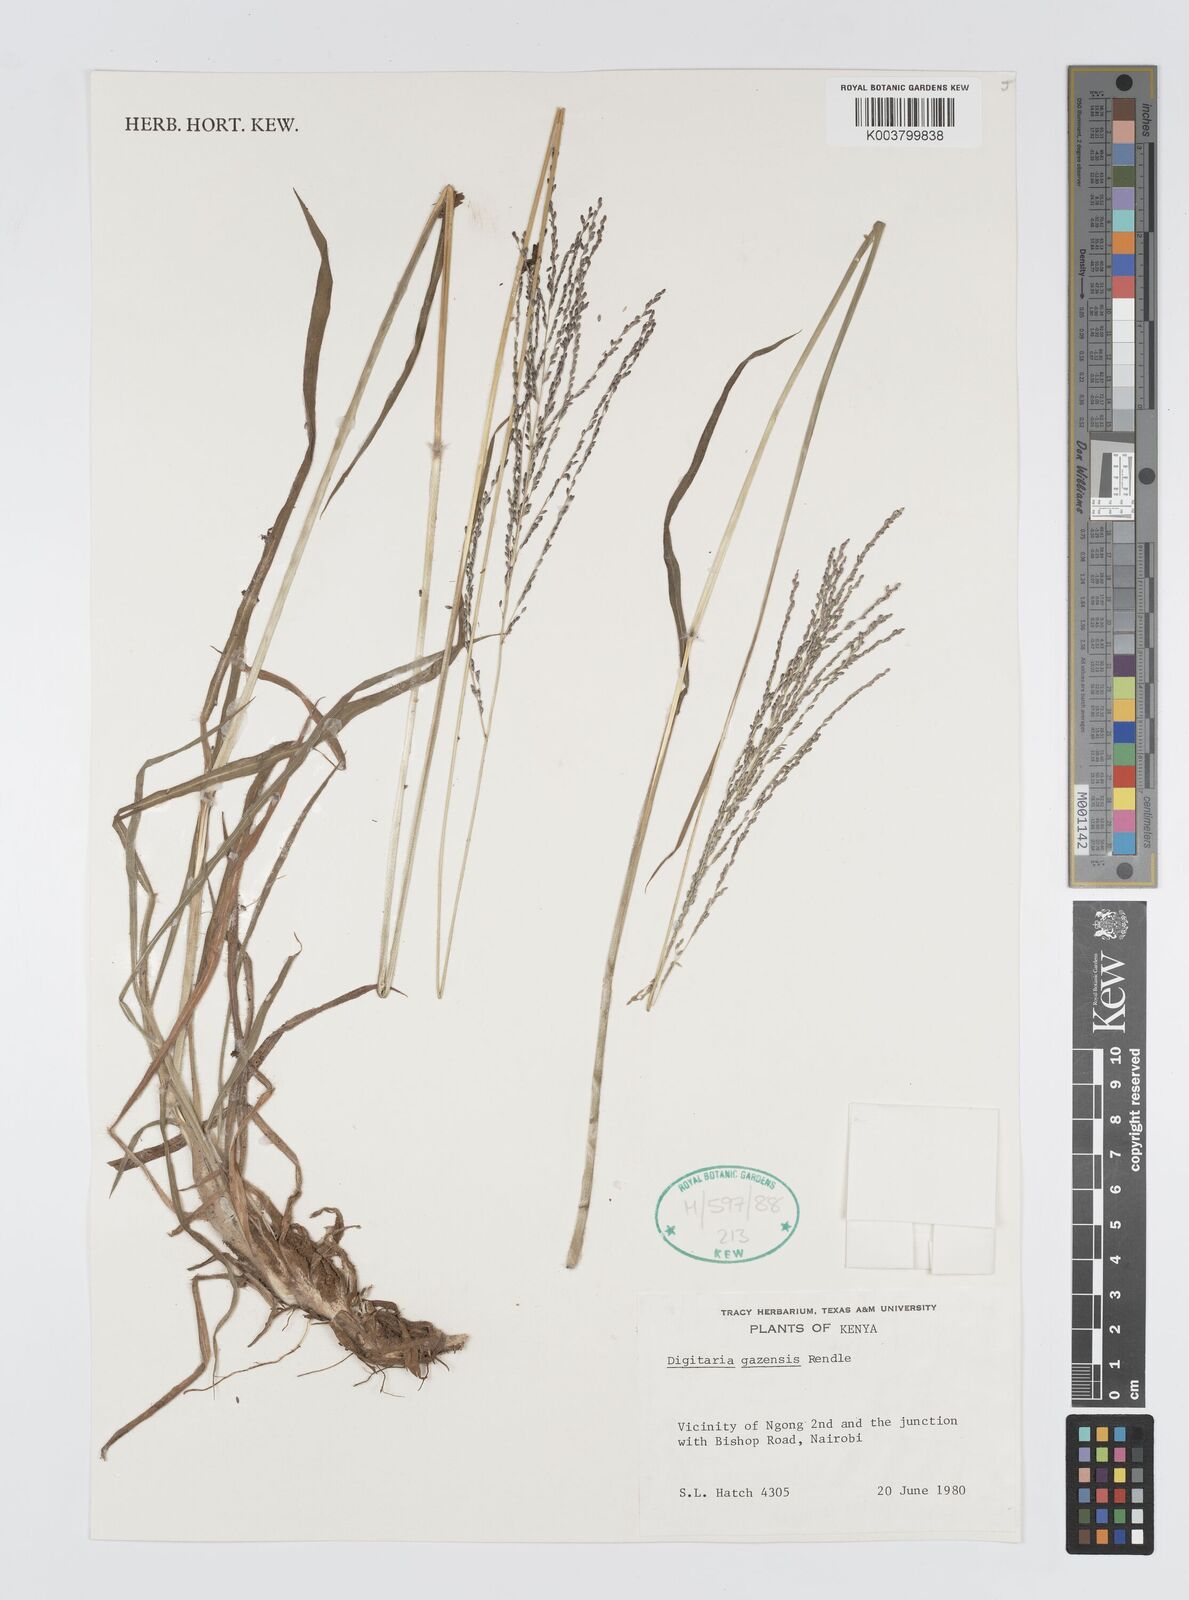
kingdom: Plantae
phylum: Tracheophyta
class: Liliopsida
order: Poales
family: Poaceae
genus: Digitaria
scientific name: Digitaria gazensis
